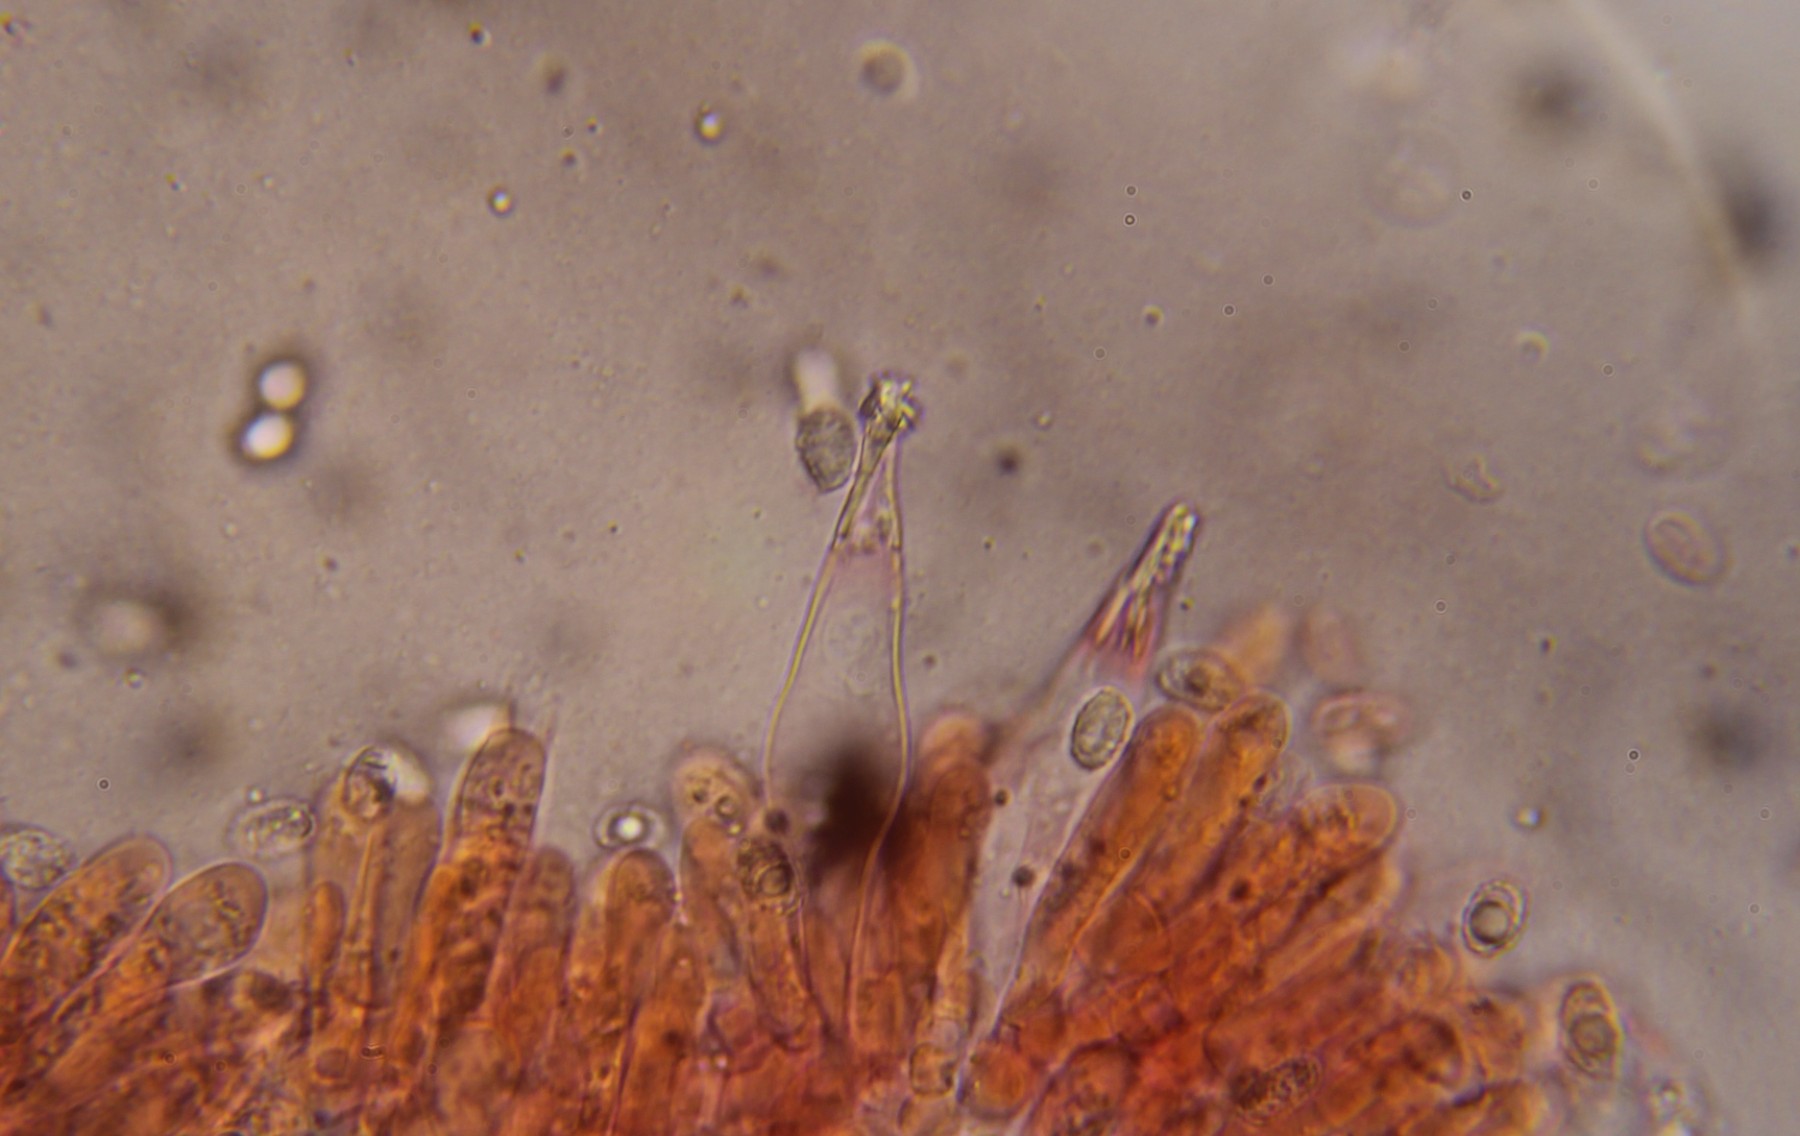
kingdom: Fungi
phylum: Basidiomycota
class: Agaricomycetes
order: Agaricales
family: Tricholomataceae
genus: Melanoleuca
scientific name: Melanoleuca bataillei
